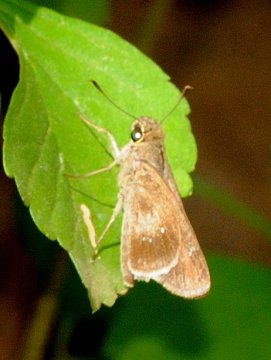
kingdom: Animalia
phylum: Arthropoda
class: Insecta
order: Lepidoptera
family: Hesperiidae
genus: Borbo
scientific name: Borbo
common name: Swifts
